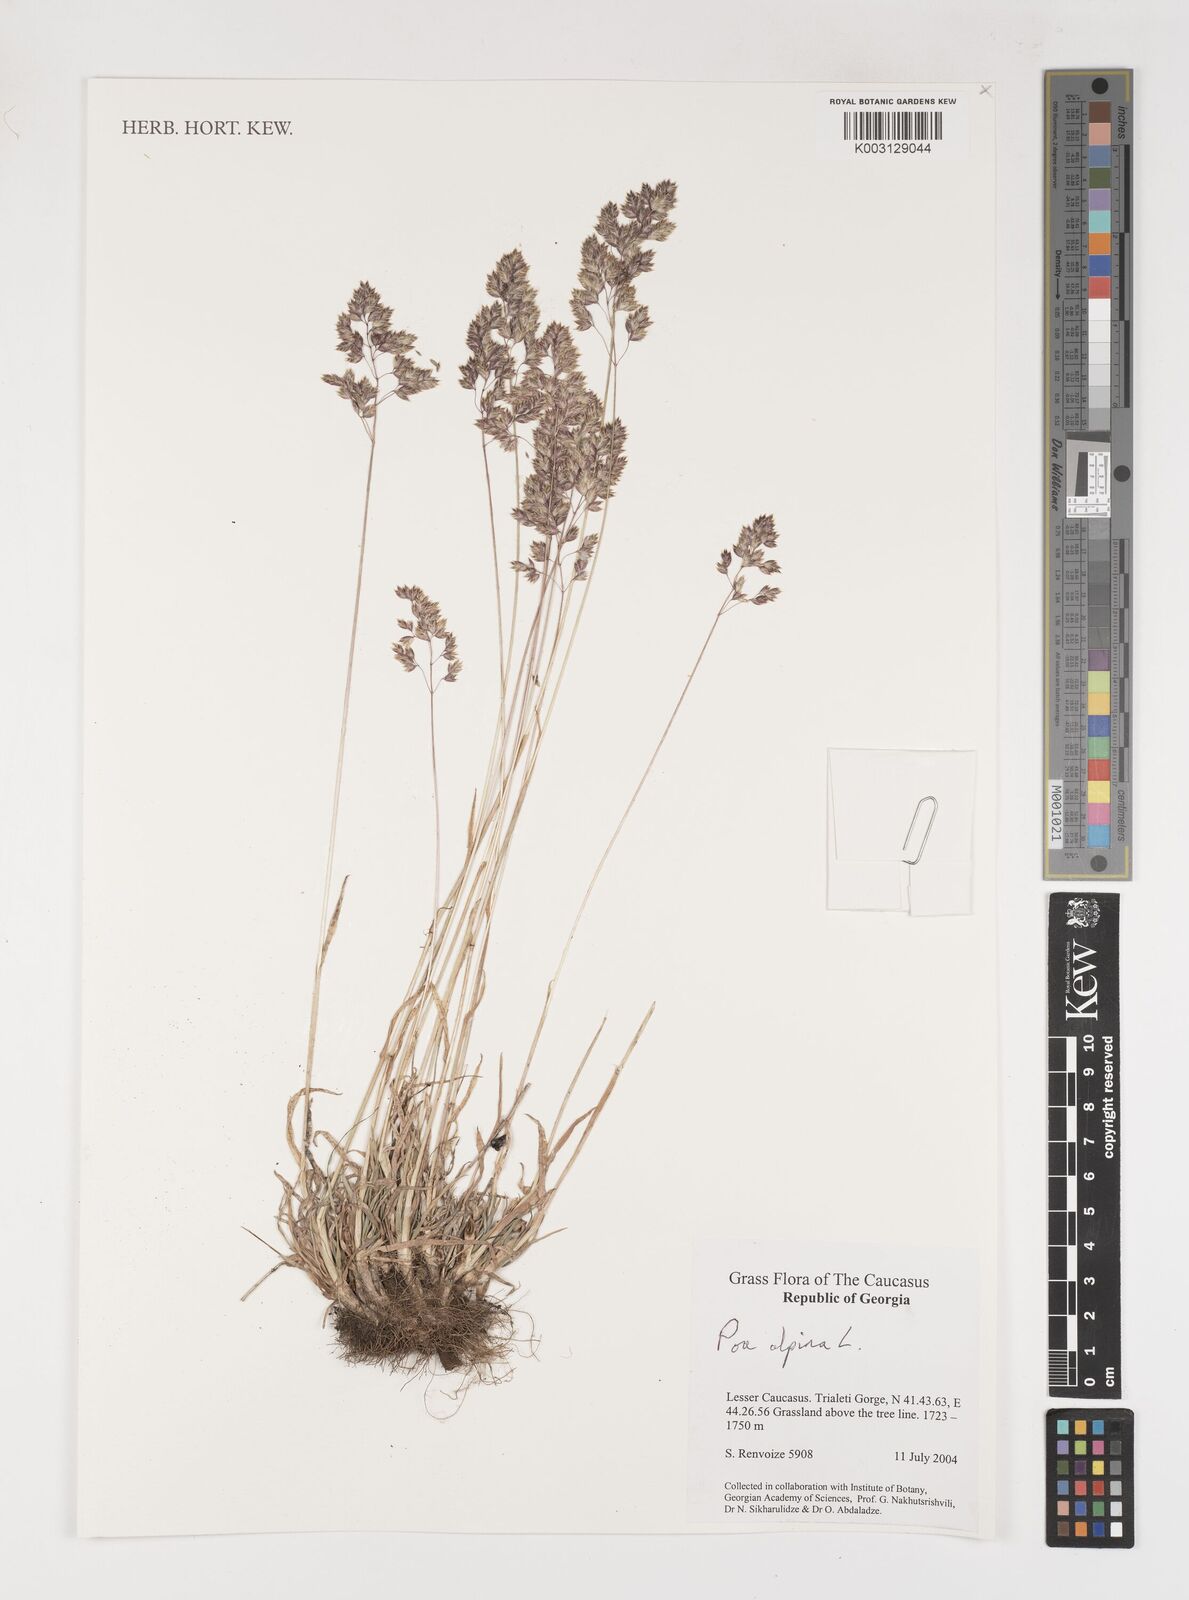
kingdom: Plantae
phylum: Tracheophyta
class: Liliopsida
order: Poales
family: Poaceae
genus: Poa
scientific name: Poa alpina
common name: Alpine bluegrass
